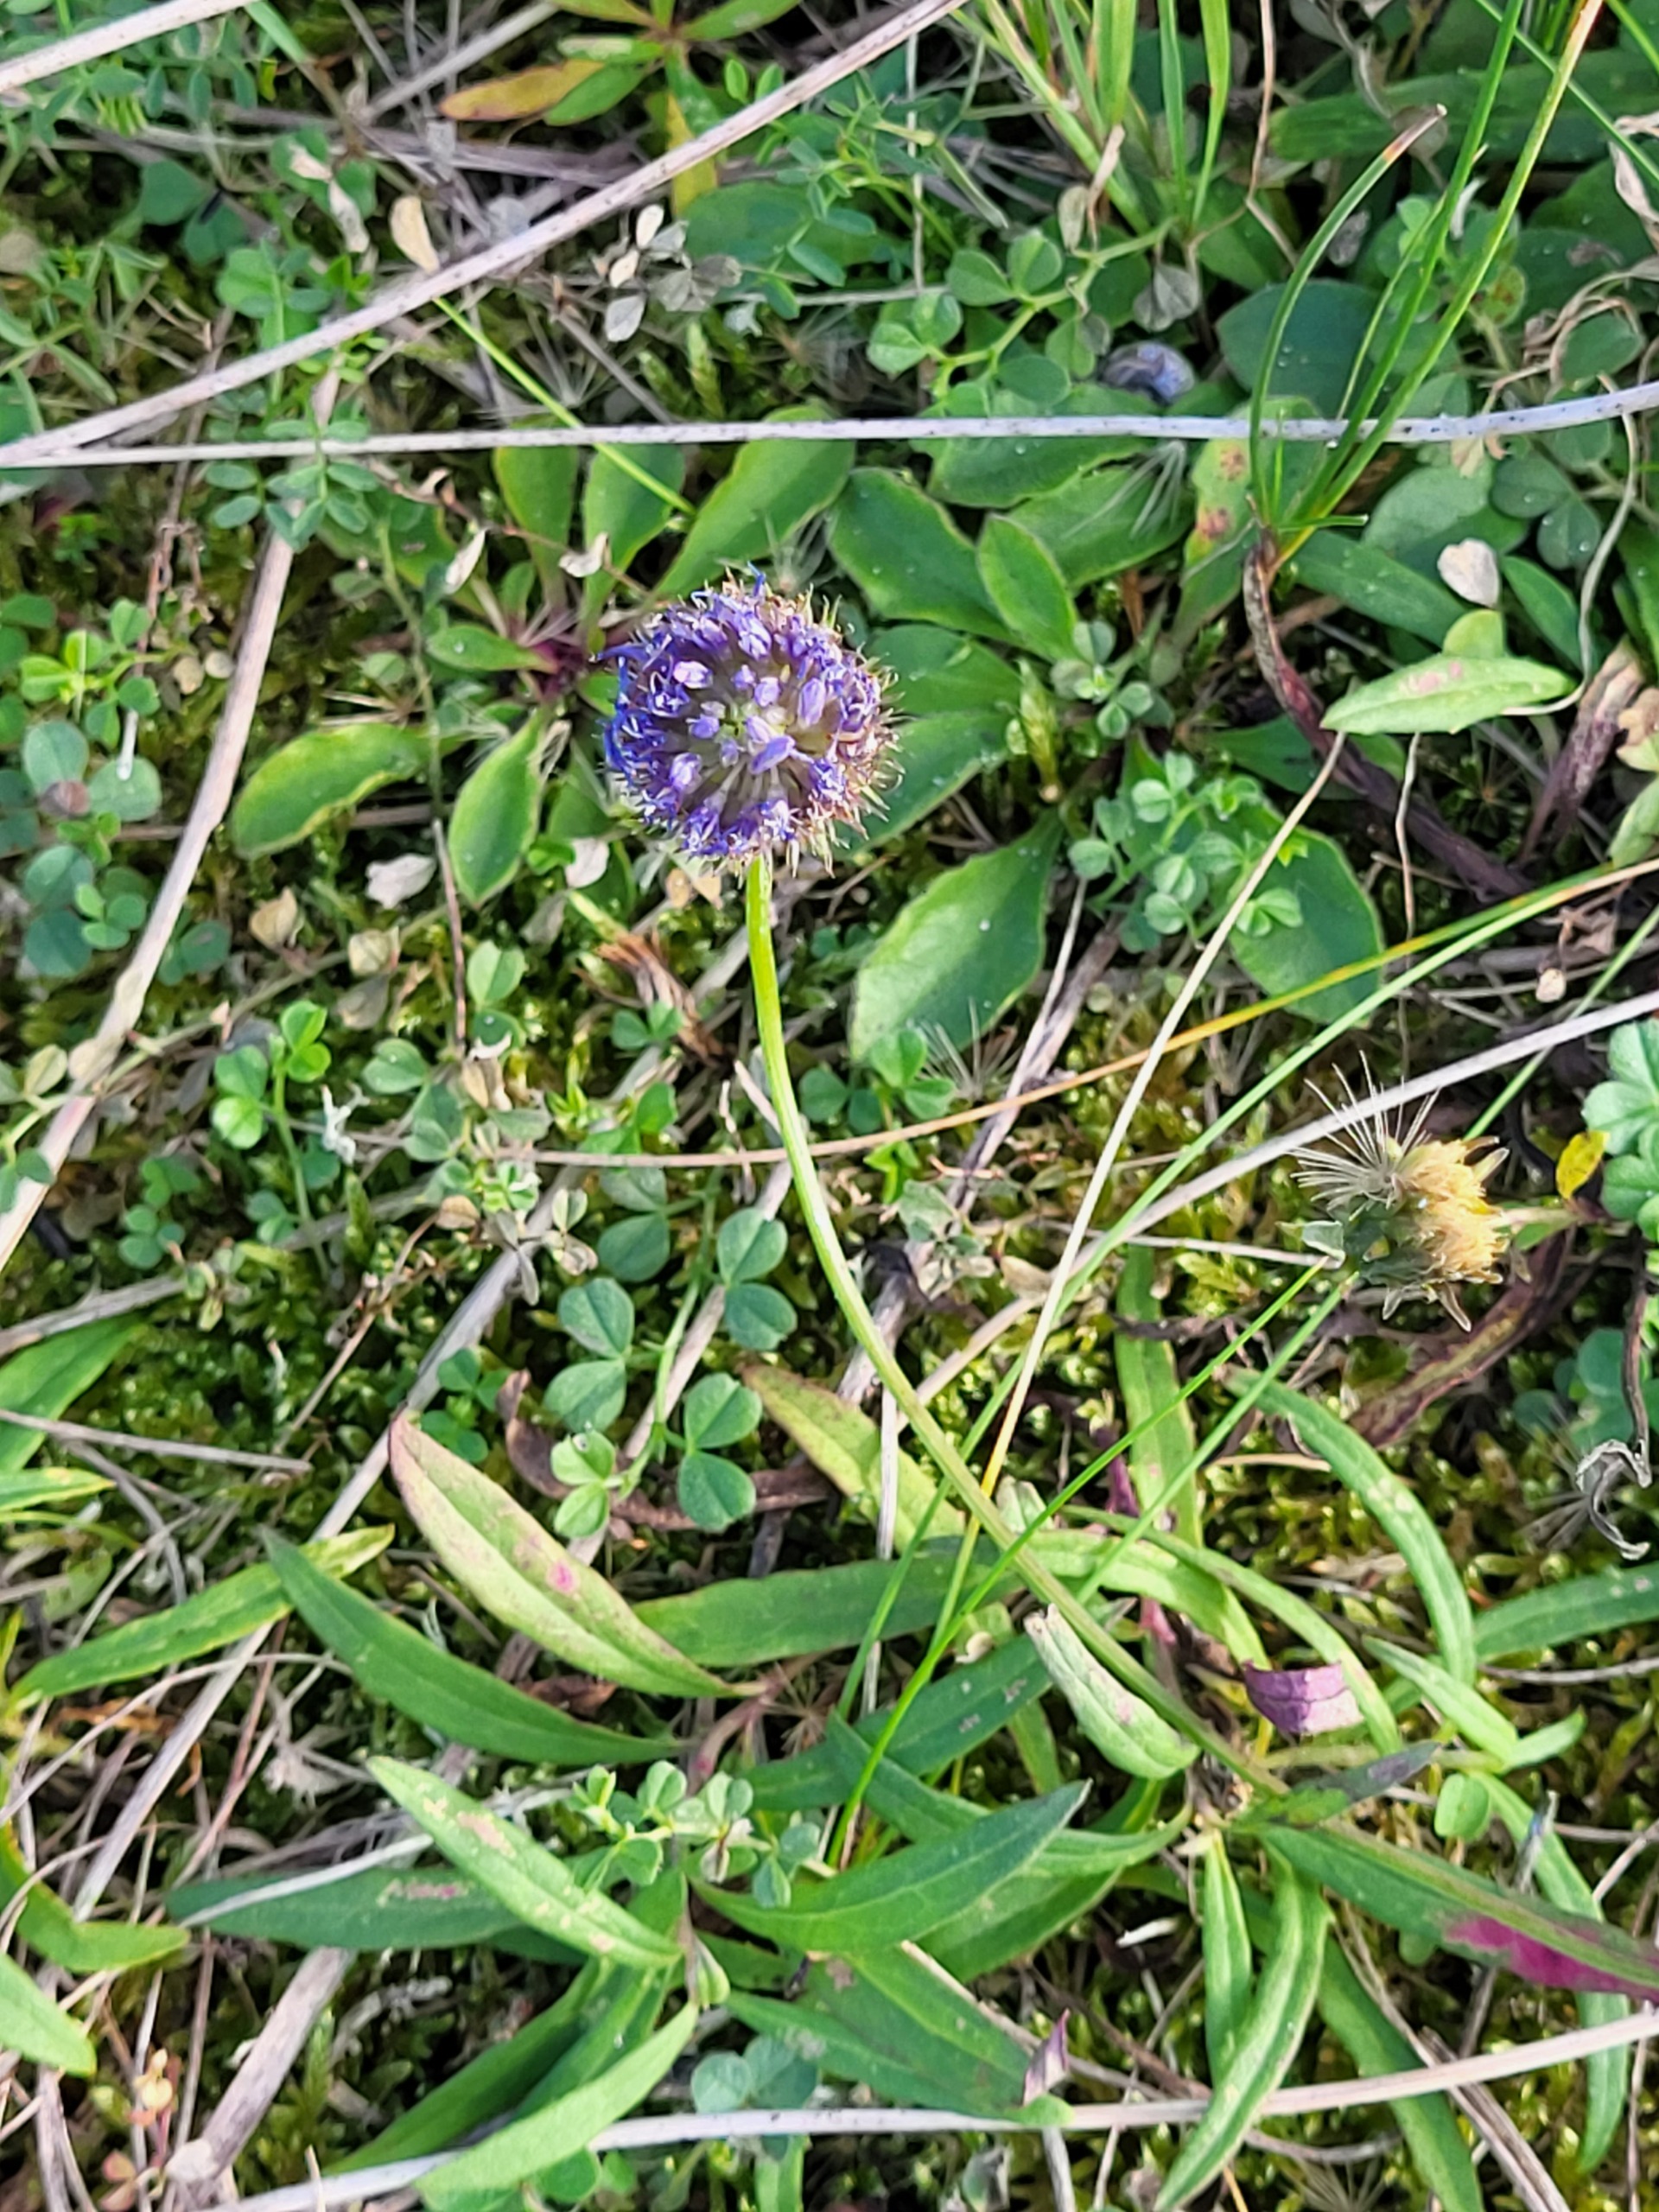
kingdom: Plantae
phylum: Tracheophyta
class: Magnoliopsida
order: Dipsacales
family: Caprifoliaceae
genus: Succisa
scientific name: Succisa pratensis
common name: Djævelsbid
